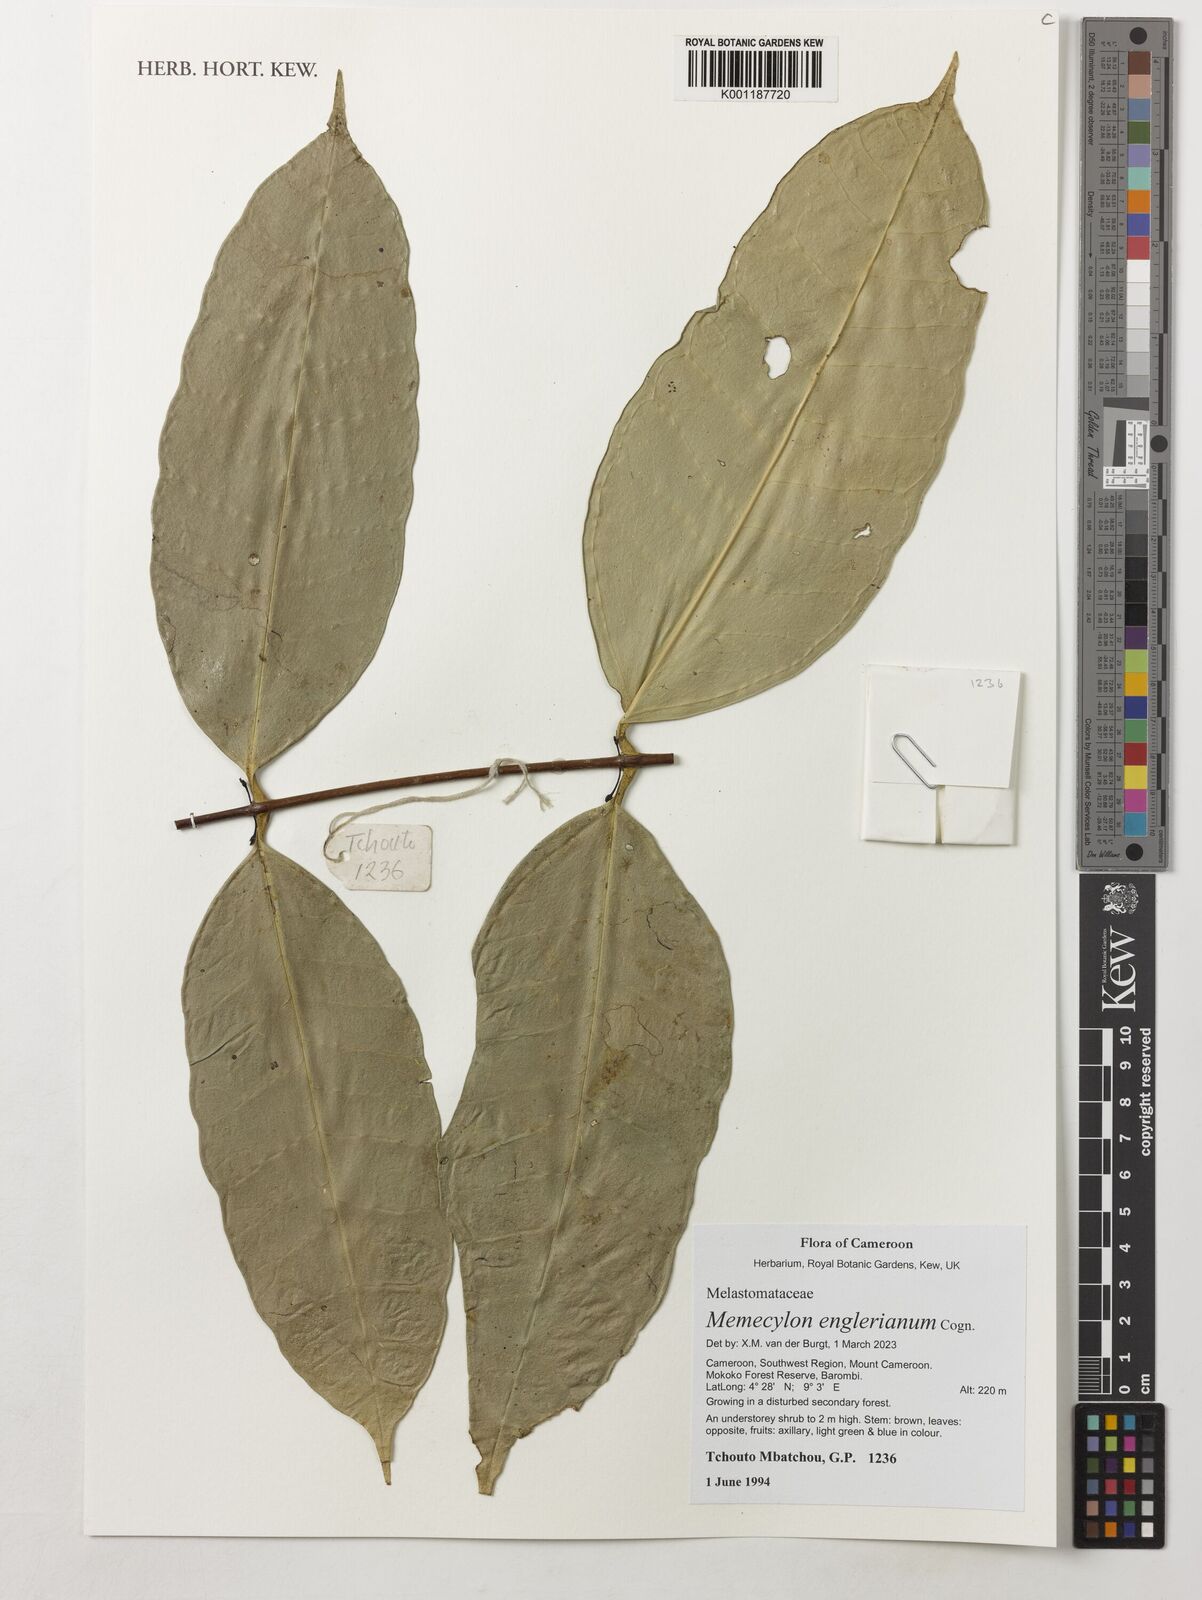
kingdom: Plantae
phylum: Tracheophyta
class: Magnoliopsida
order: Myrtales
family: Melastomataceae
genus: Memecylon
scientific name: Memecylon englerianum
